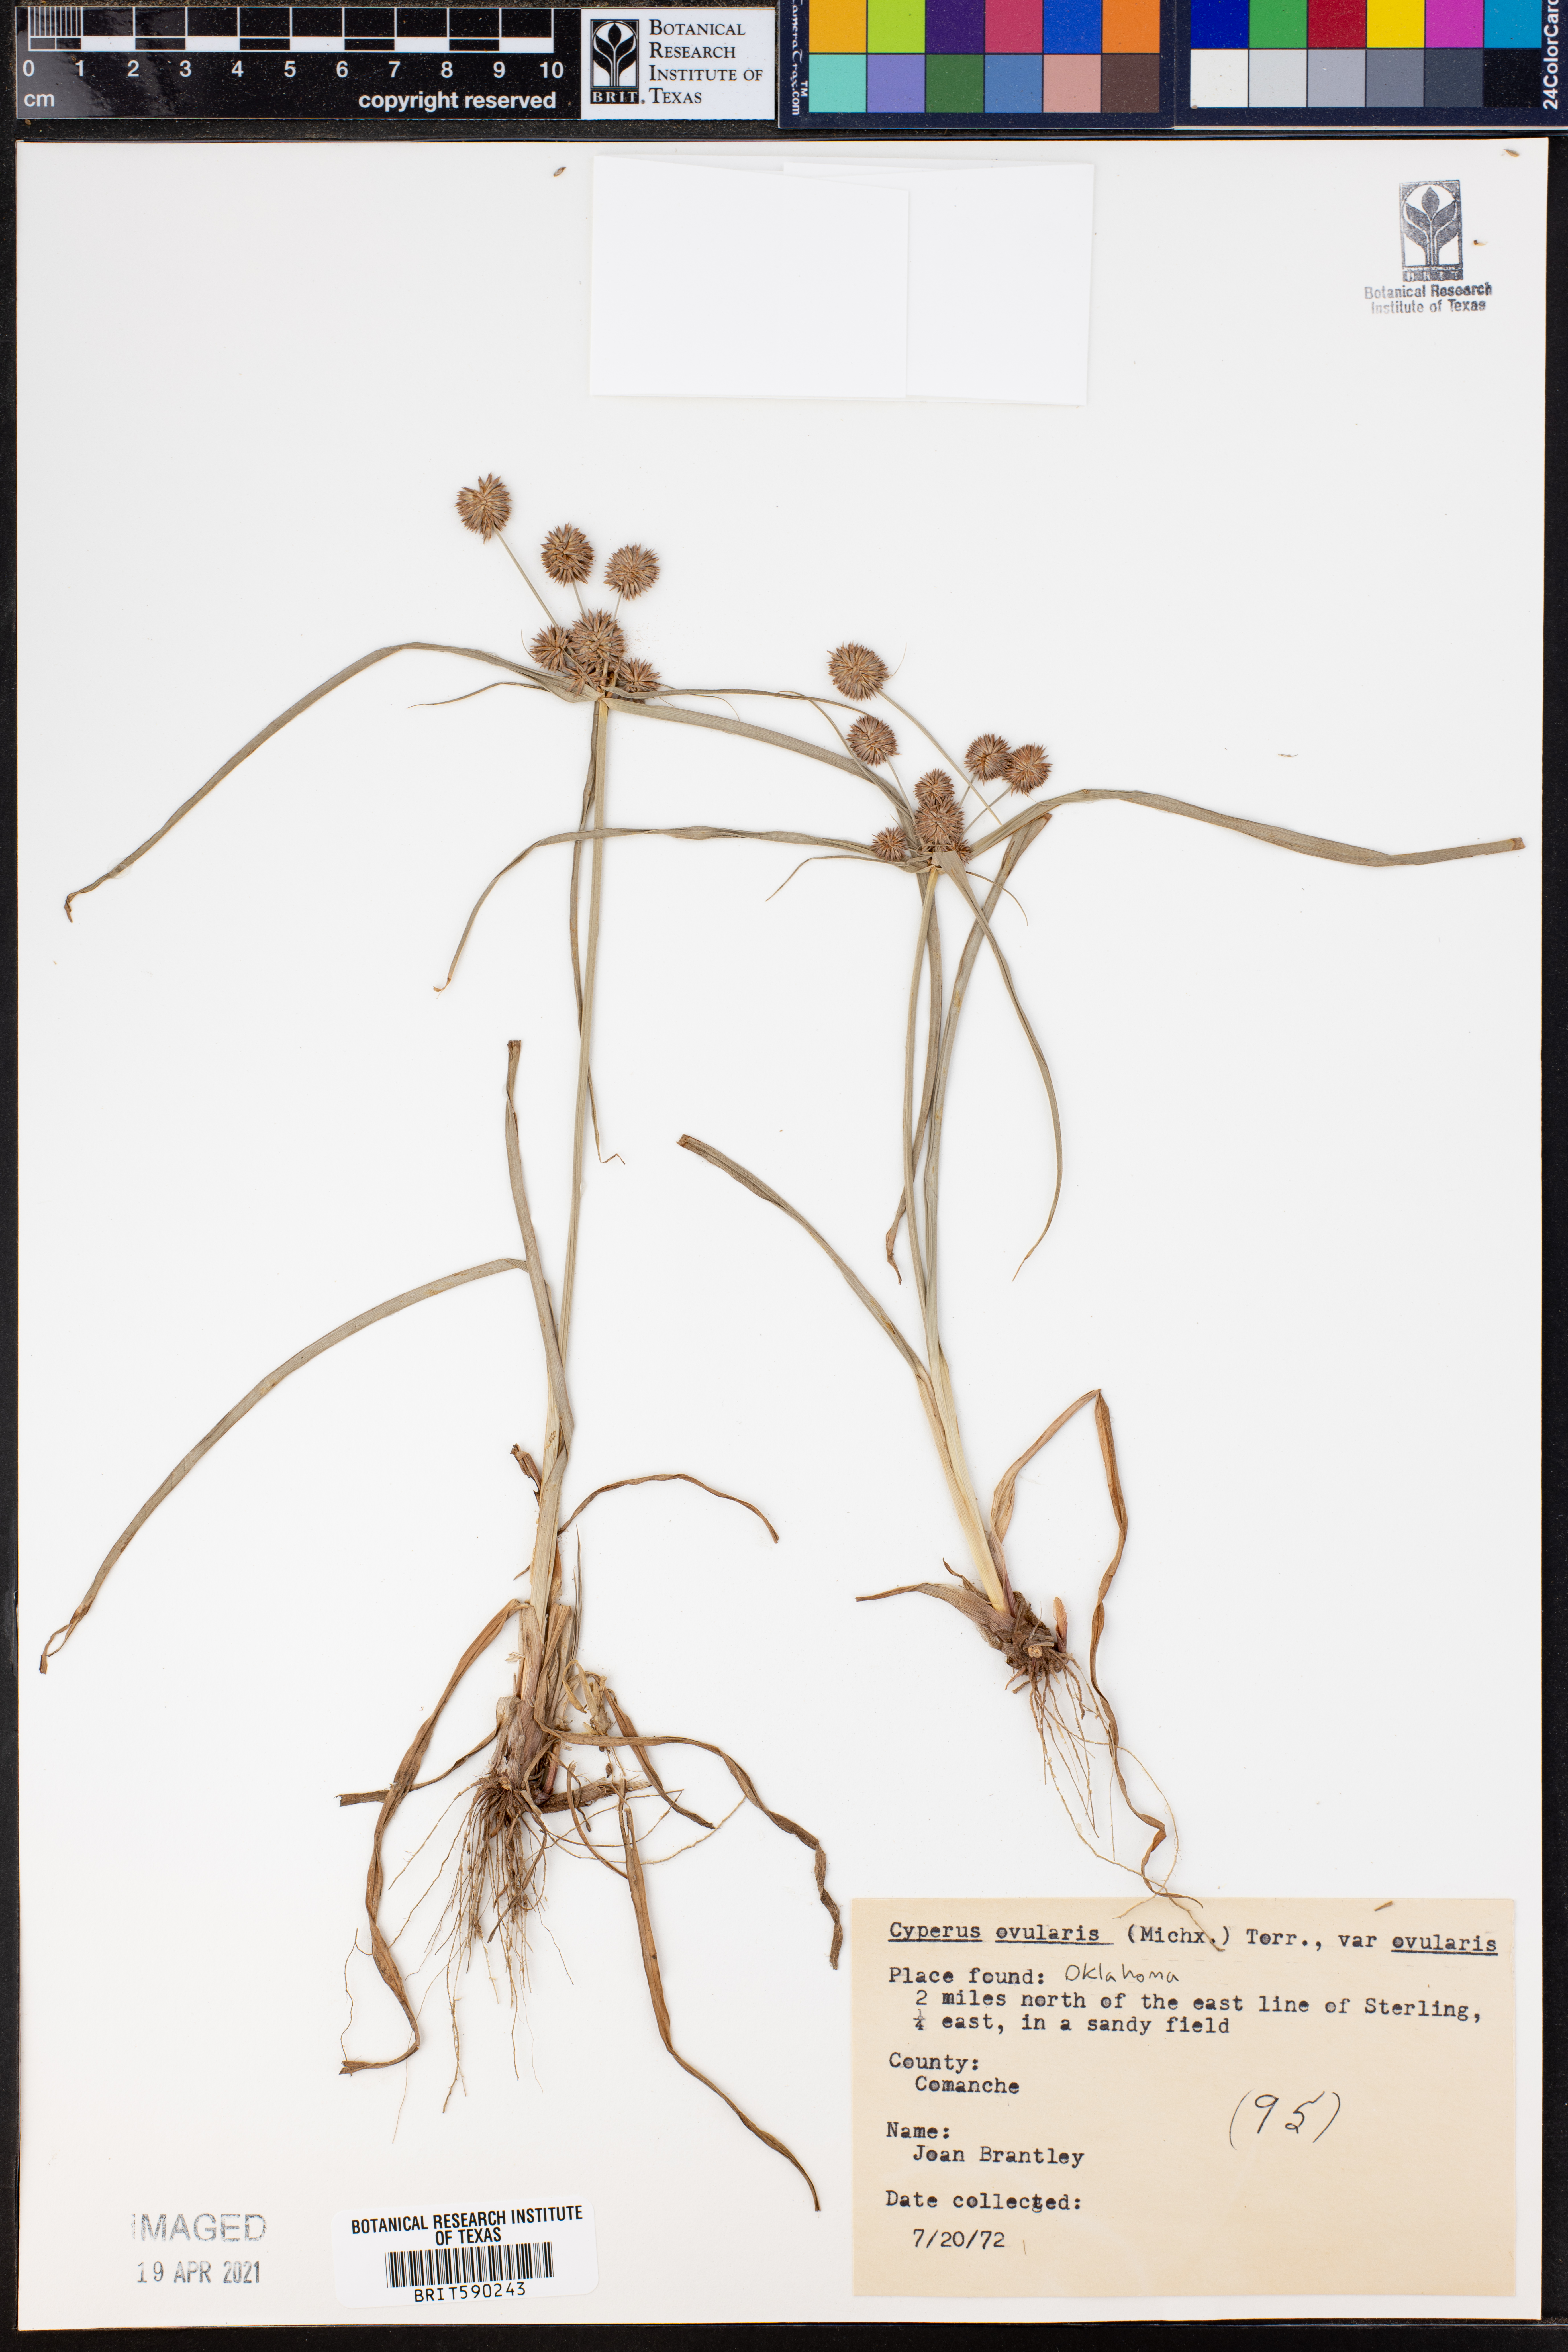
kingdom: Plantae
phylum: Tracheophyta
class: Liliopsida
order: Poales
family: Cyperaceae
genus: Cyperus
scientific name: Cyperus
